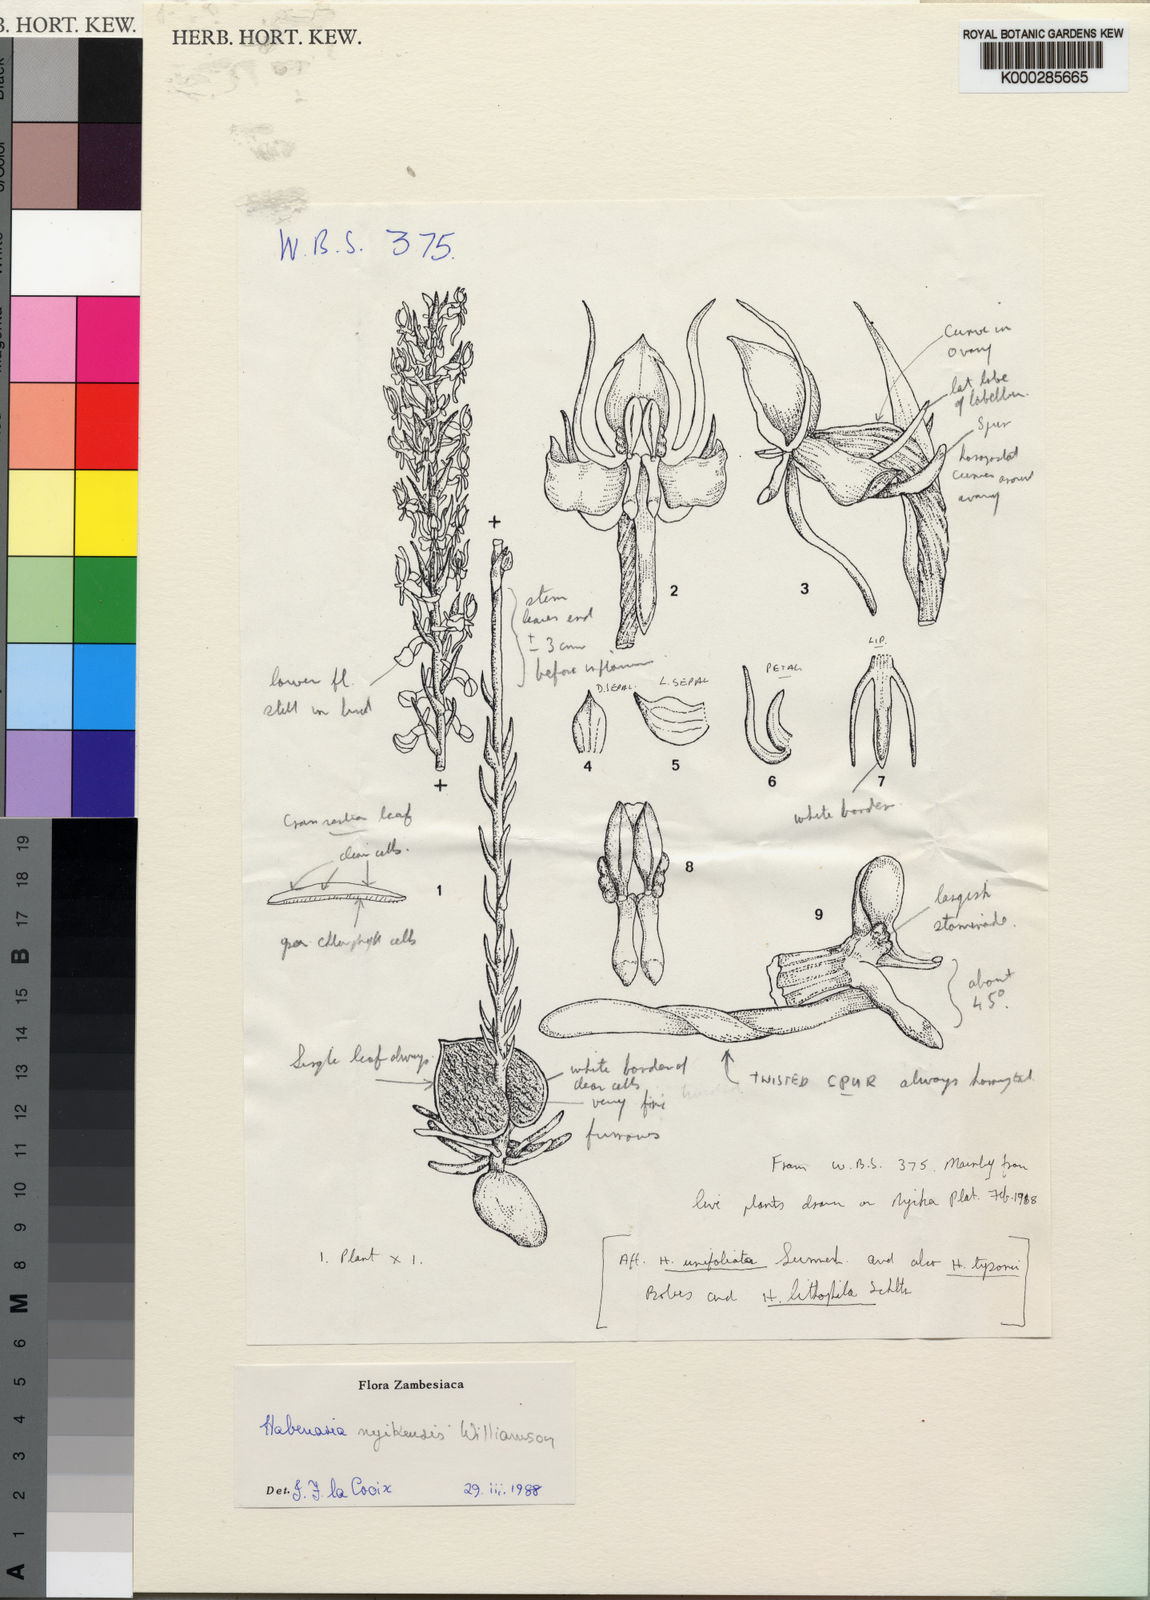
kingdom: Plantae
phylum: Tracheophyta
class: Liliopsida
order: Asparagales
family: Orchidaceae
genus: Habenaria
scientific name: Habenaria nyikensis
